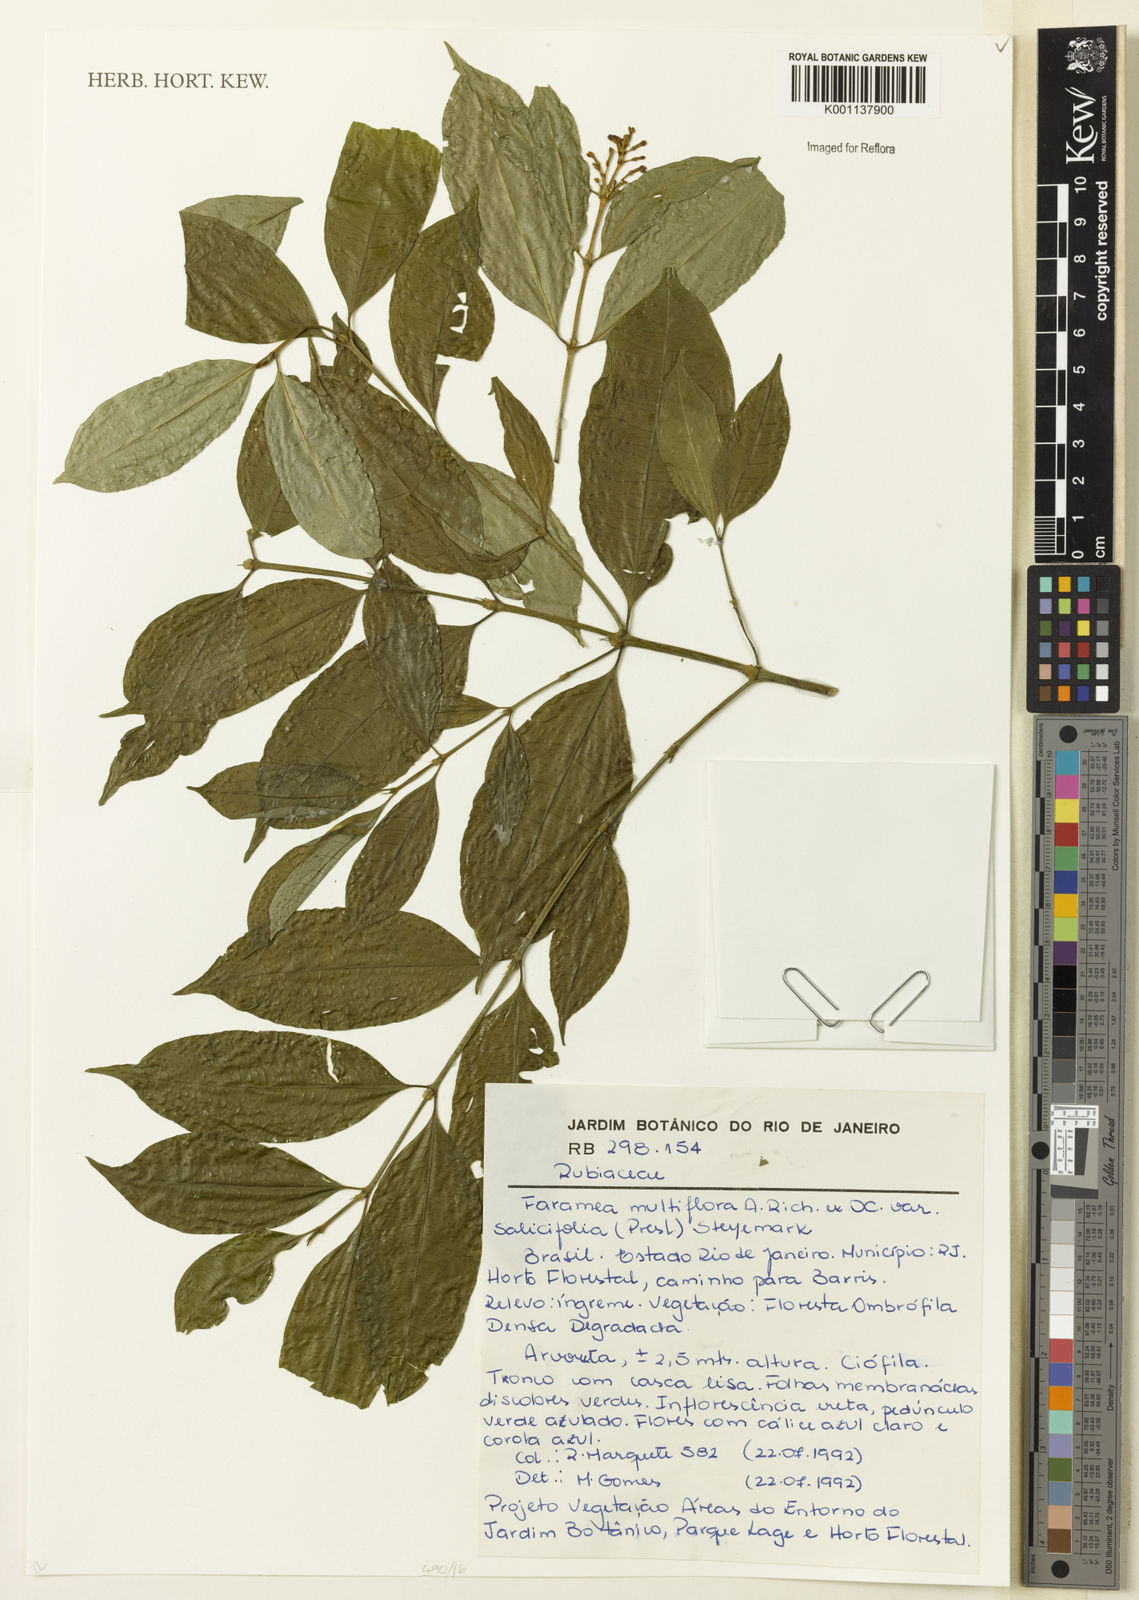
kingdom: Plantae
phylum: Tracheophyta
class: Magnoliopsida
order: Gentianales
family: Rubiaceae
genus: Faramea
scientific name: Faramea multiflora
